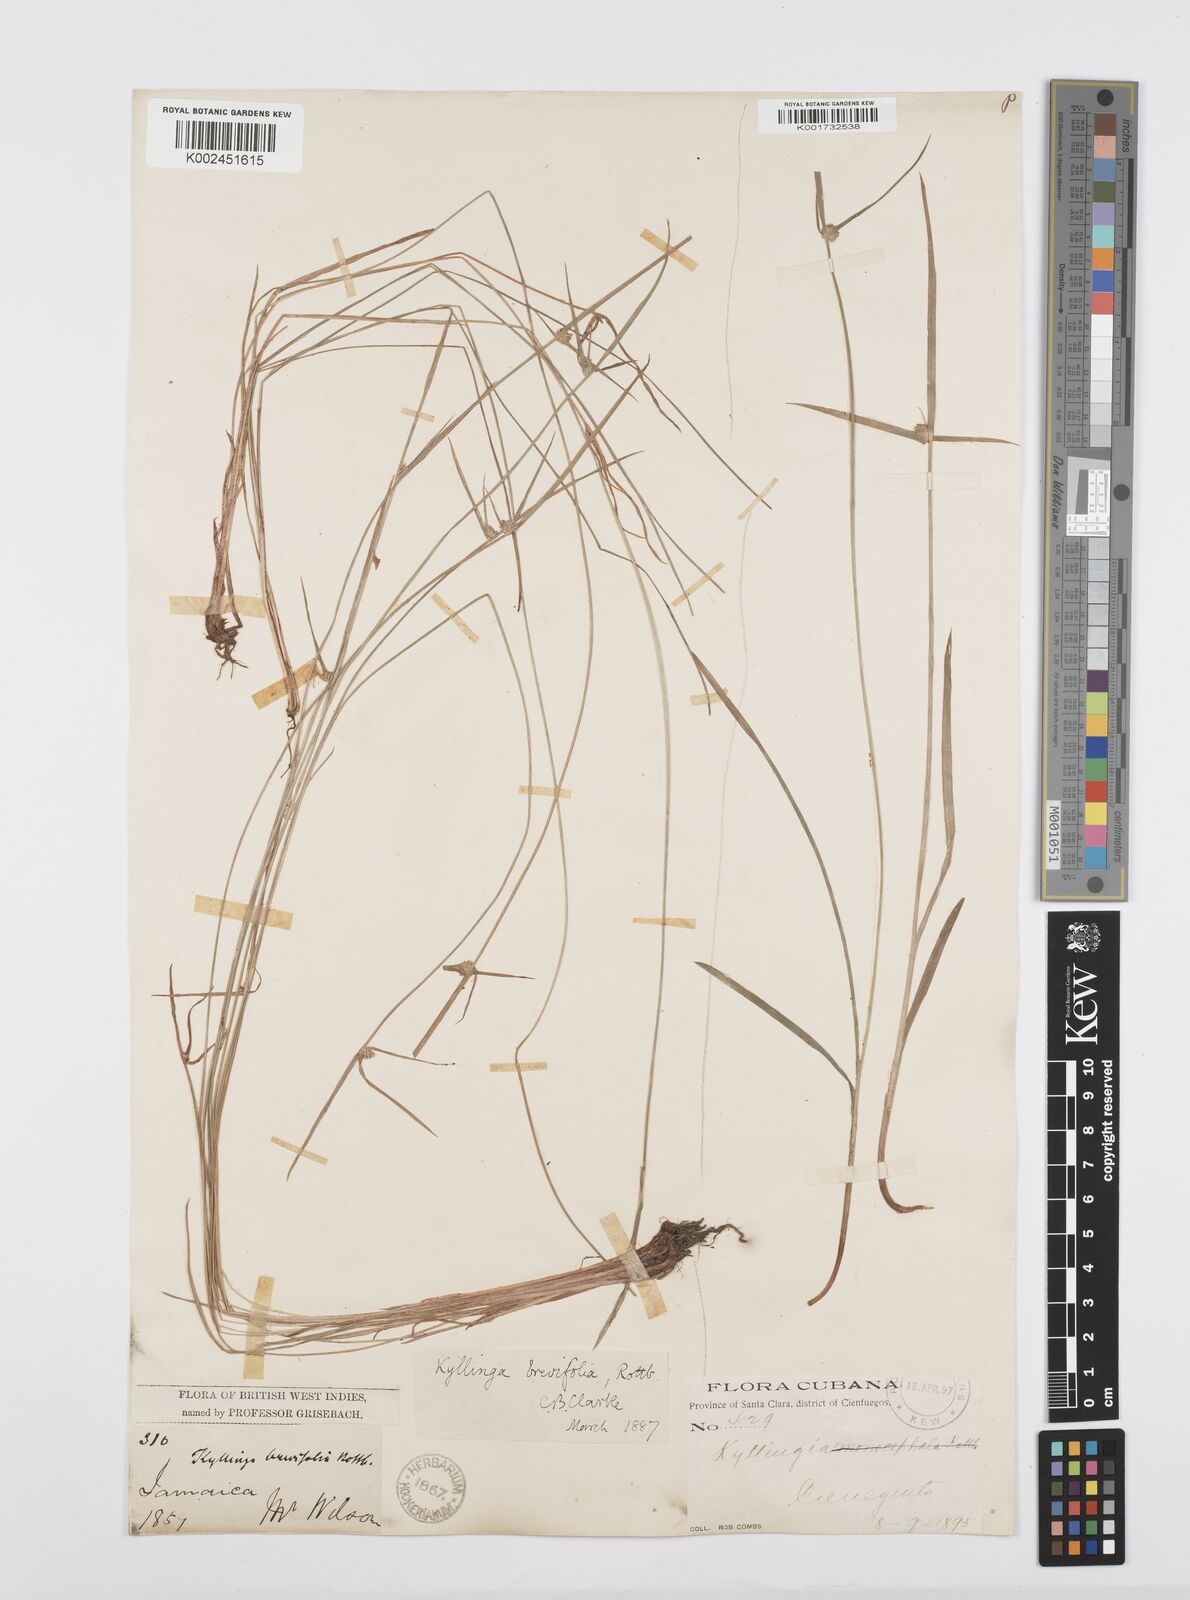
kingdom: Plantae
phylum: Tracheophyta
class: Liliopsida
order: Poales
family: Cyperaceae
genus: Cyperus
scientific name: Cyperus brevifolius
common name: Globe kyllinga
